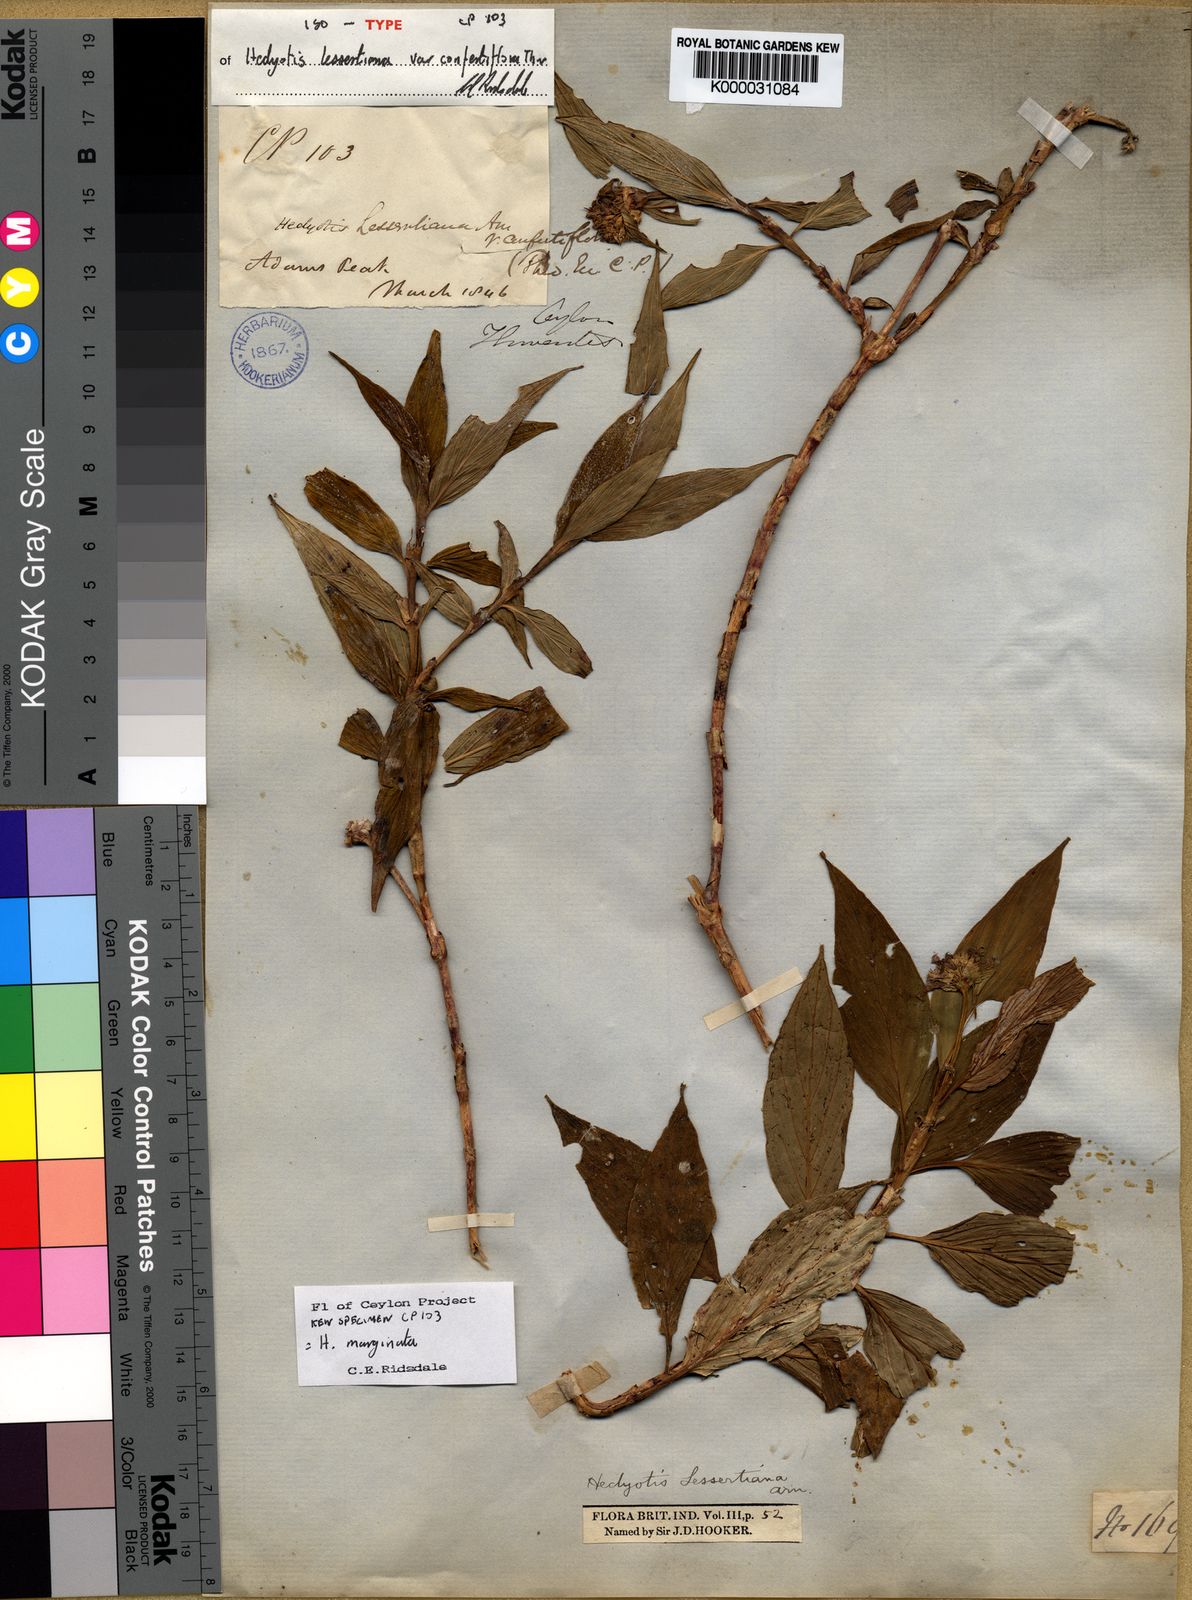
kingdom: Plantae
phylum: Tracheophyta
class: Magnoliopsida
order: Gentianales
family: Rubiaceae
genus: Hedyotis
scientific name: Hedyotis marginata
